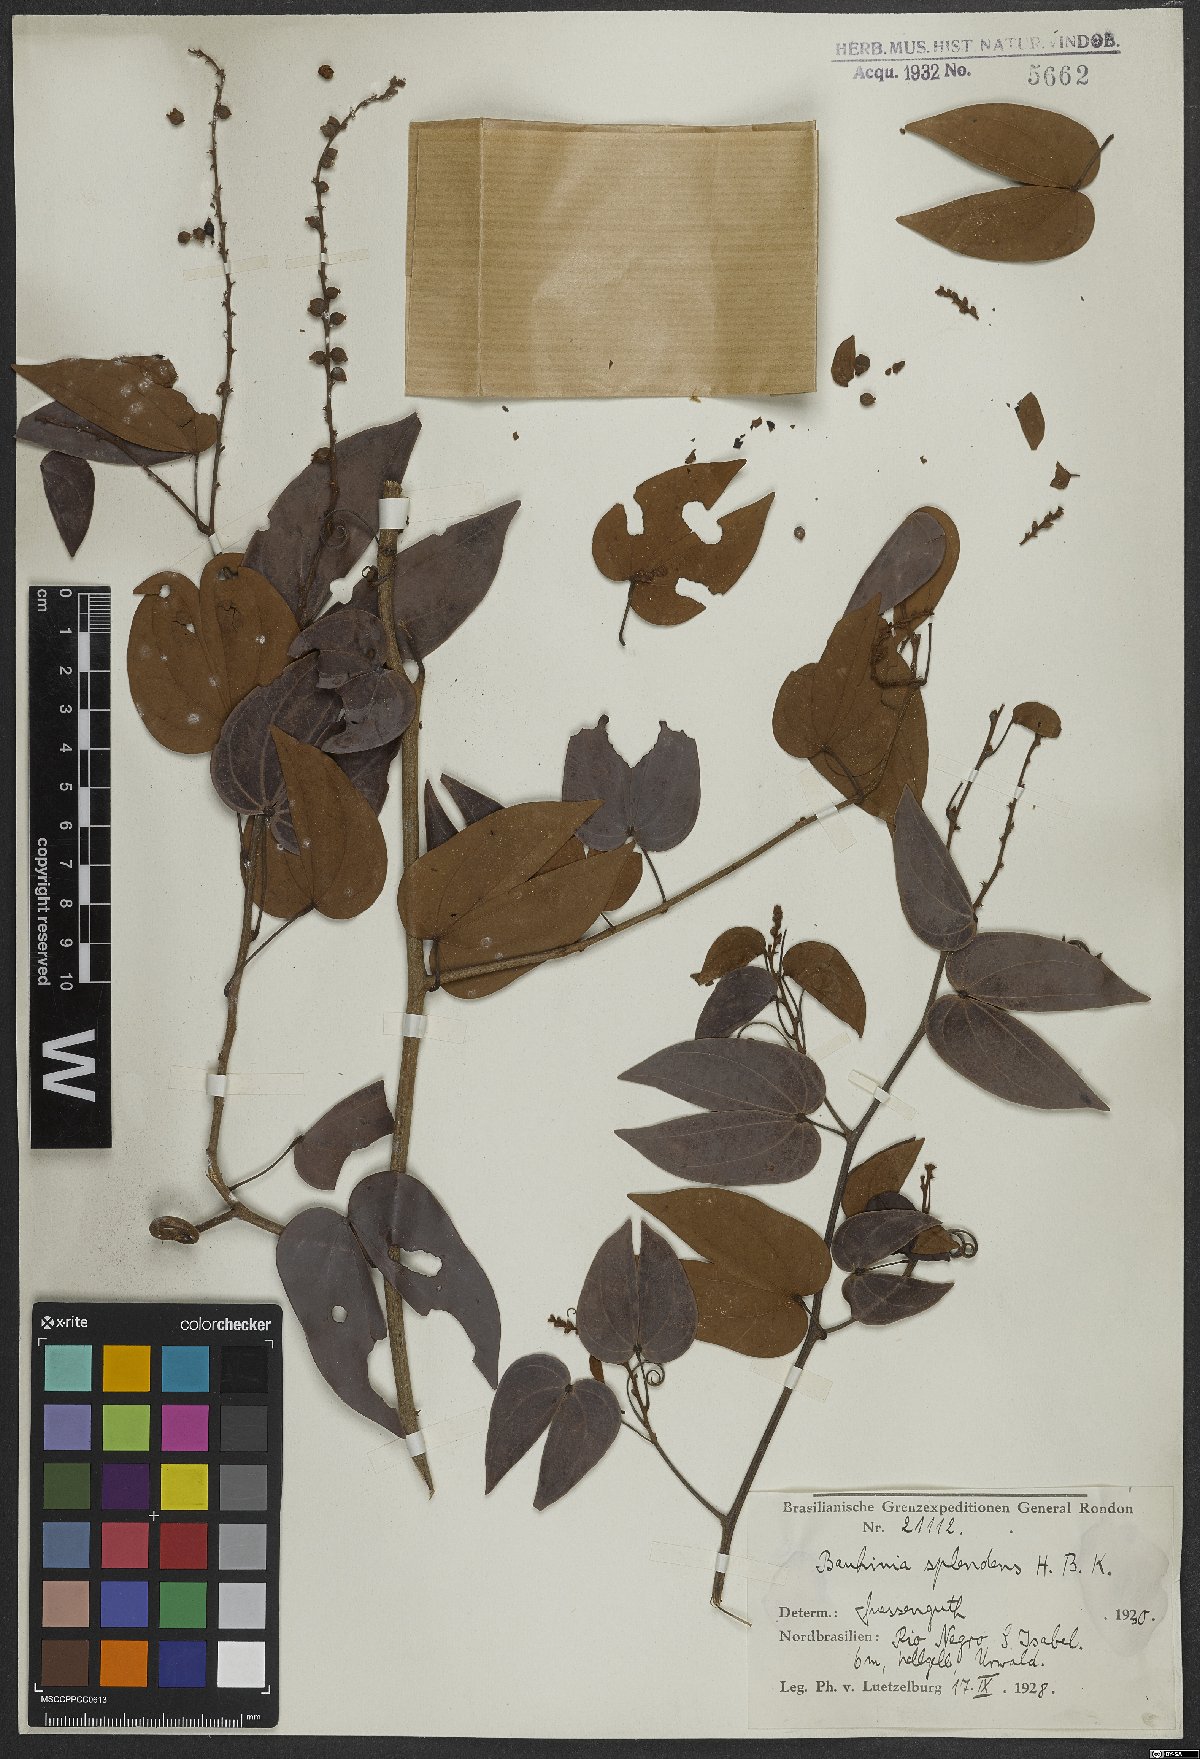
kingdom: Plantae
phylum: Tracheophyta
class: Magnoliopsida
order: Fabales
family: Fabaceae
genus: Schnella
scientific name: Schnella splendens
